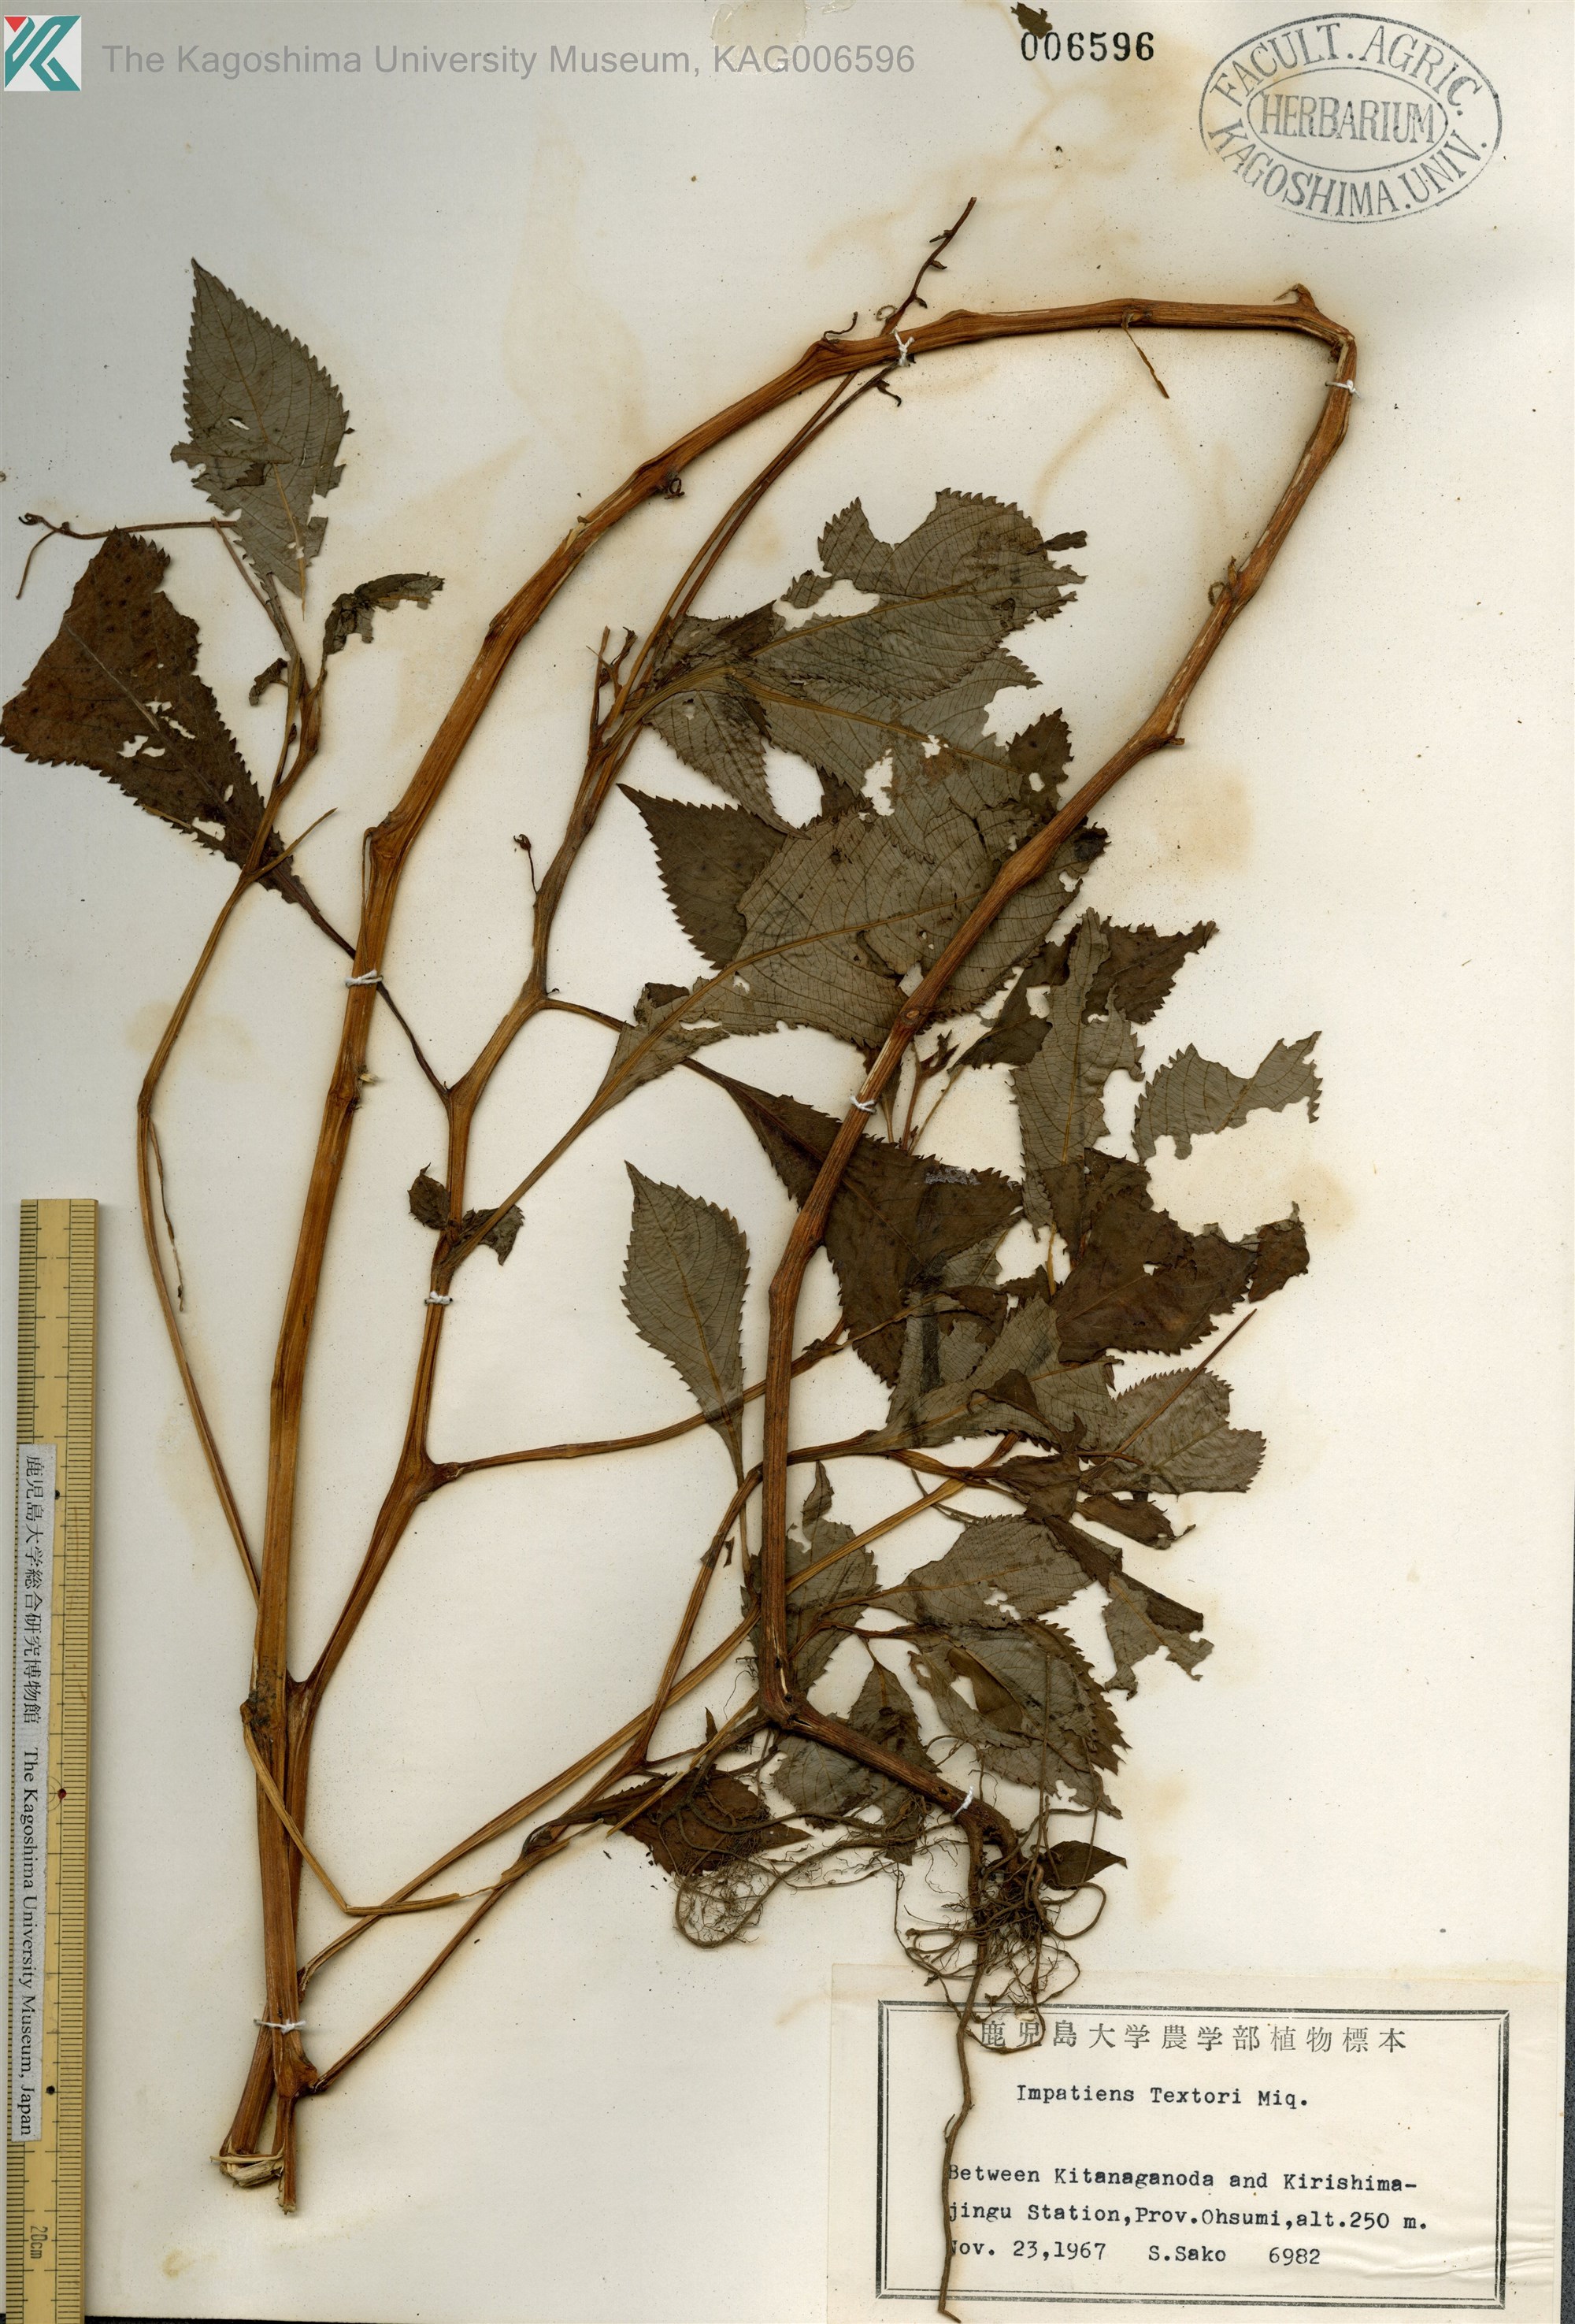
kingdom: Plantae
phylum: Tracheophyta
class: Magnoliopsida
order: Ericales
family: Balsaminaceae
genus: Impatiens
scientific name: Impatiens textorii
